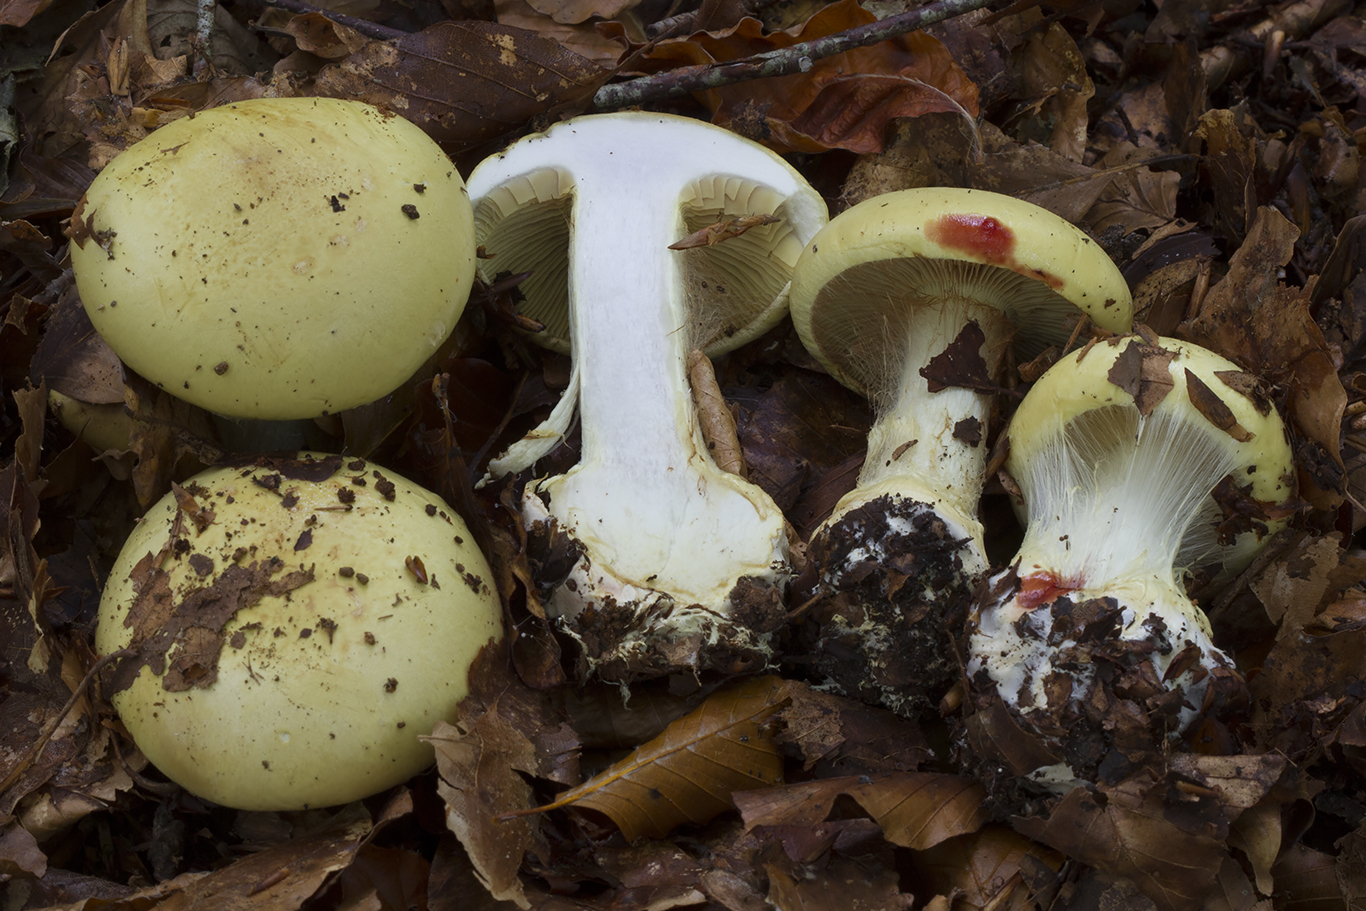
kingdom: Fungi
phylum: Basidiomycota
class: Agaricomycetes
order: Agaricales
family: Cortinariaceae
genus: Calonarius
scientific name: Calonarius elegantissimus
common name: orangegylden slørhat
